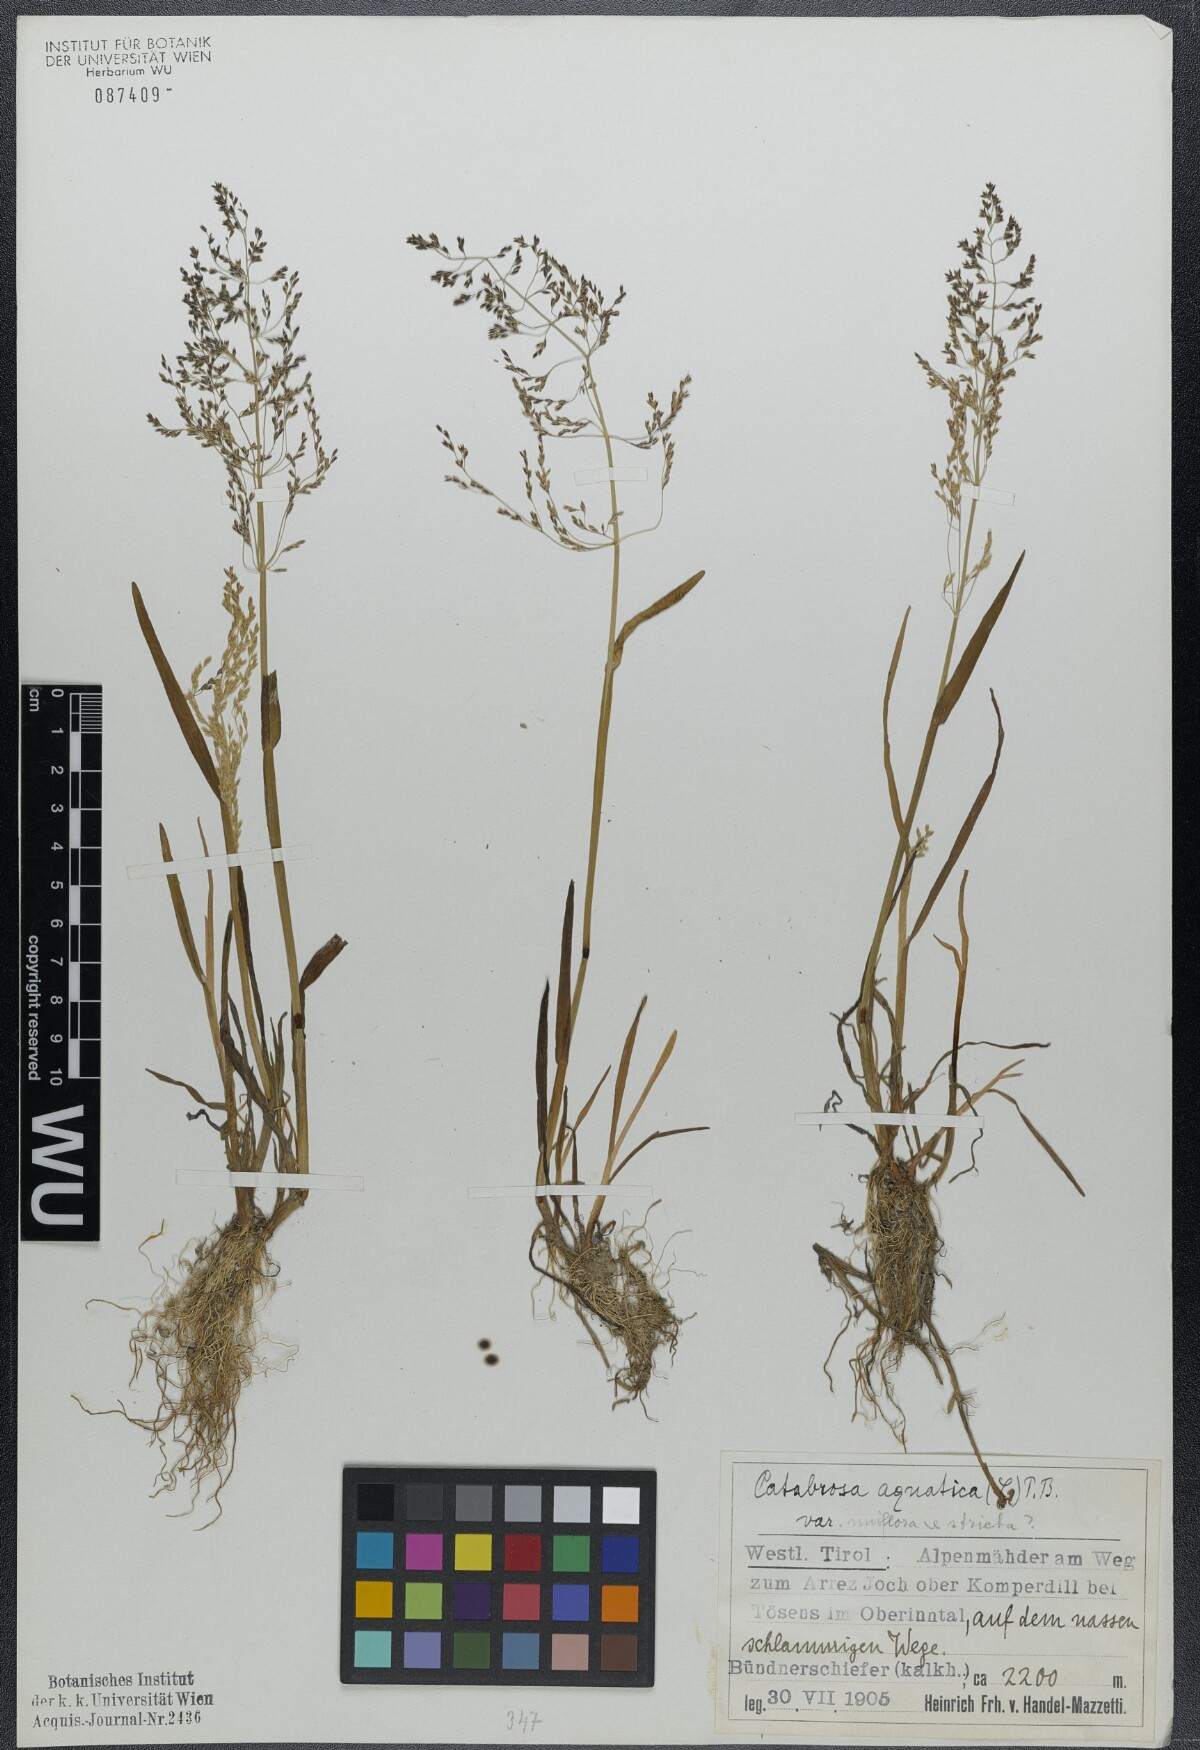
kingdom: Plantae
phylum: Tracheophyta
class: Liliopsida
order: Poales
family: Poaceae
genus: Catabrosa
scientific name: Catabrosa aquatica
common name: Whorl-grass
